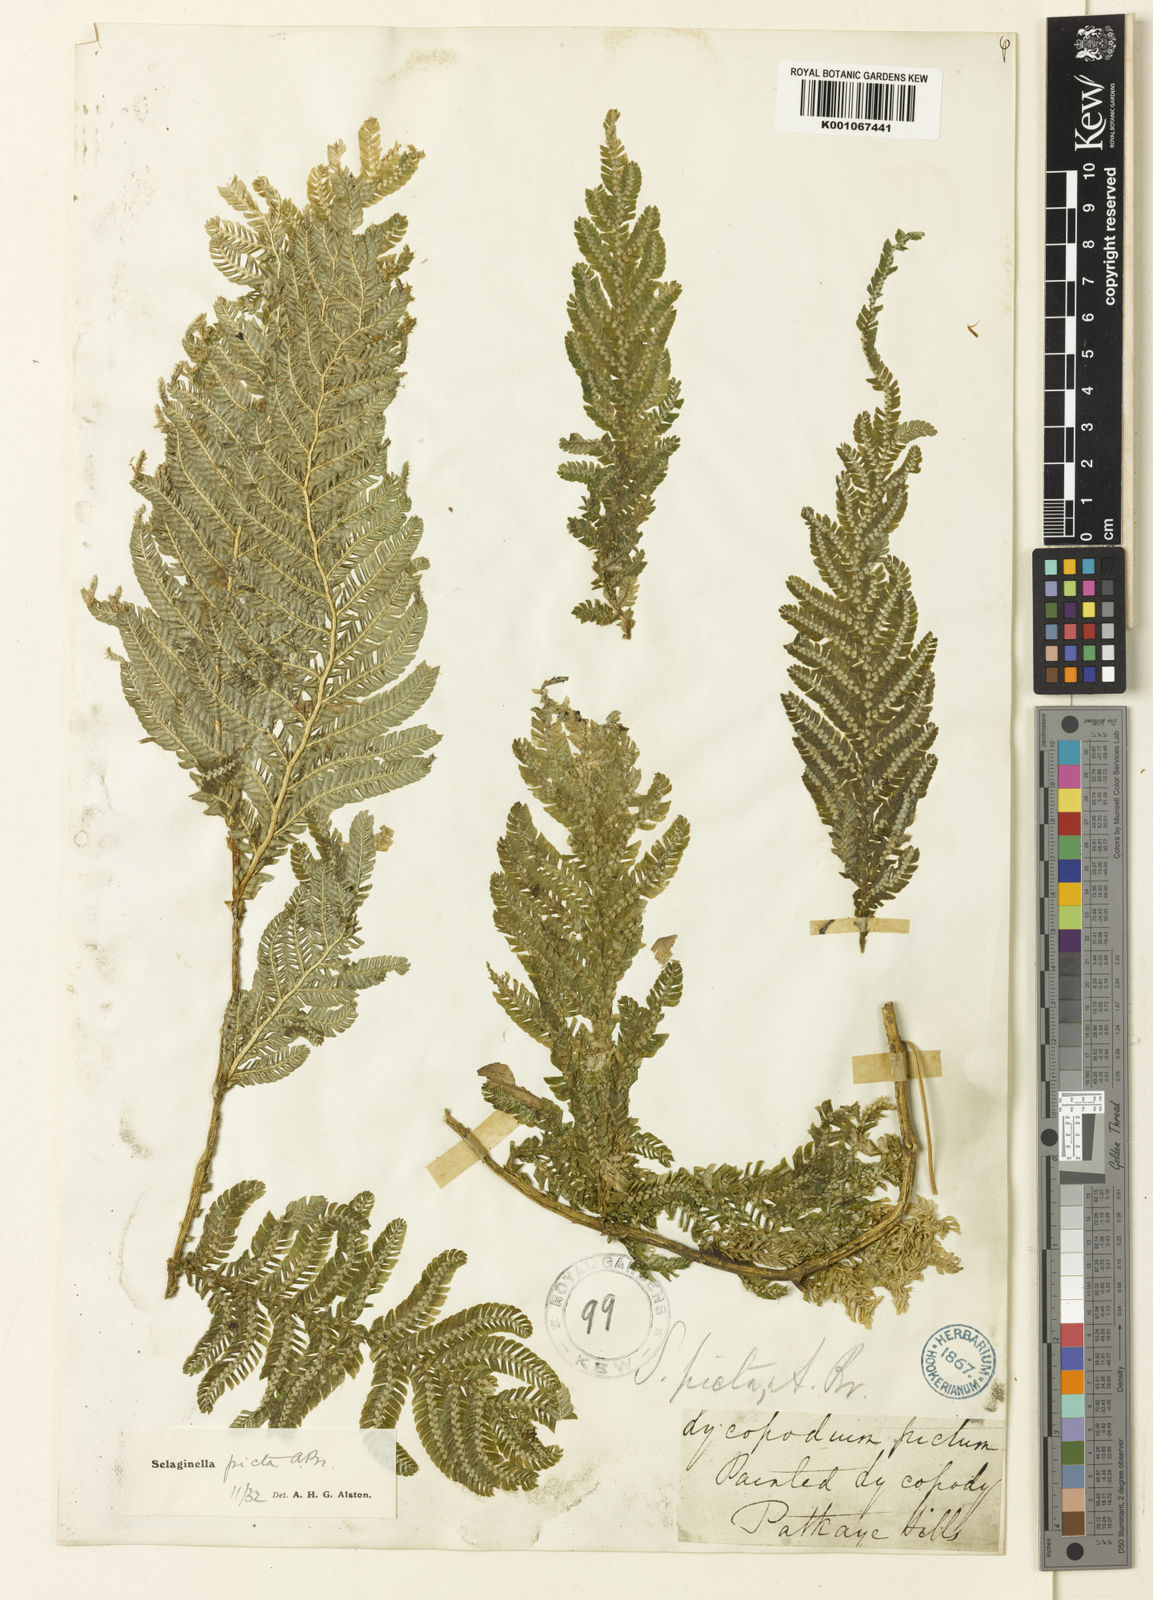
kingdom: Plantae
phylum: Tracheophyta
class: Lycopodiopsida
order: Selaginellales
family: Selaginellaceae
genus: Selaginella
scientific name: Selaginella picta
